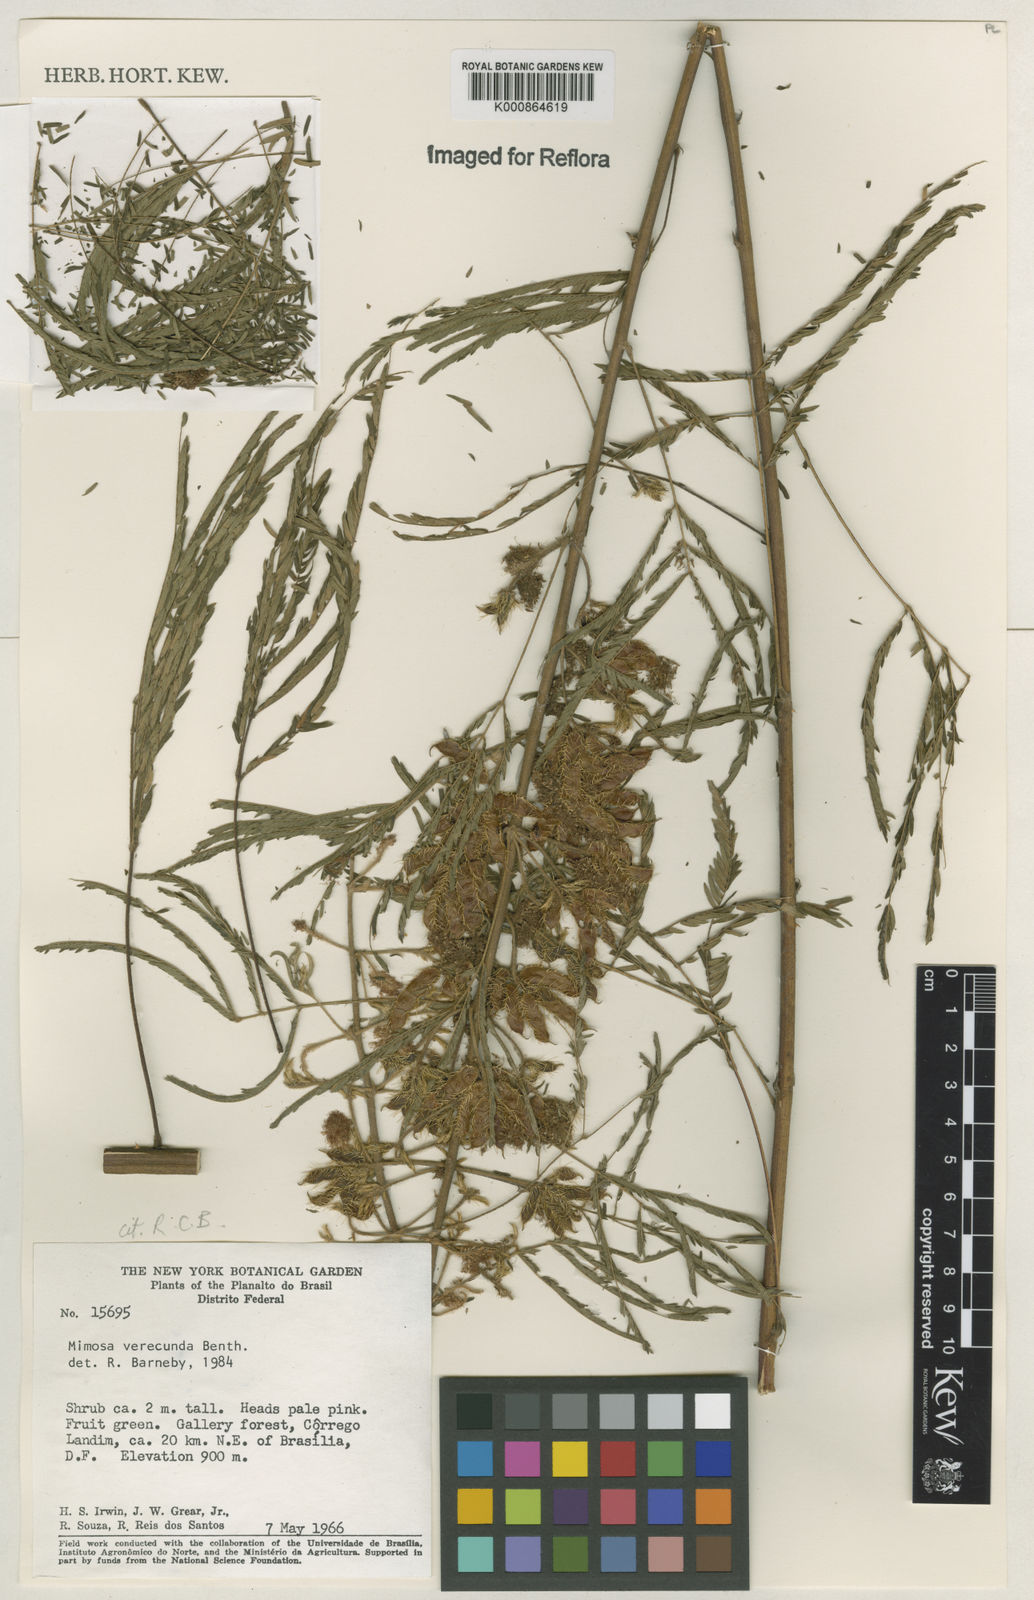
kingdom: Plantae
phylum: Tracheophyta
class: Magnoliopsida
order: Fabales
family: Fabaceae
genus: Mimosa
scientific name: Mimosa verecunda
